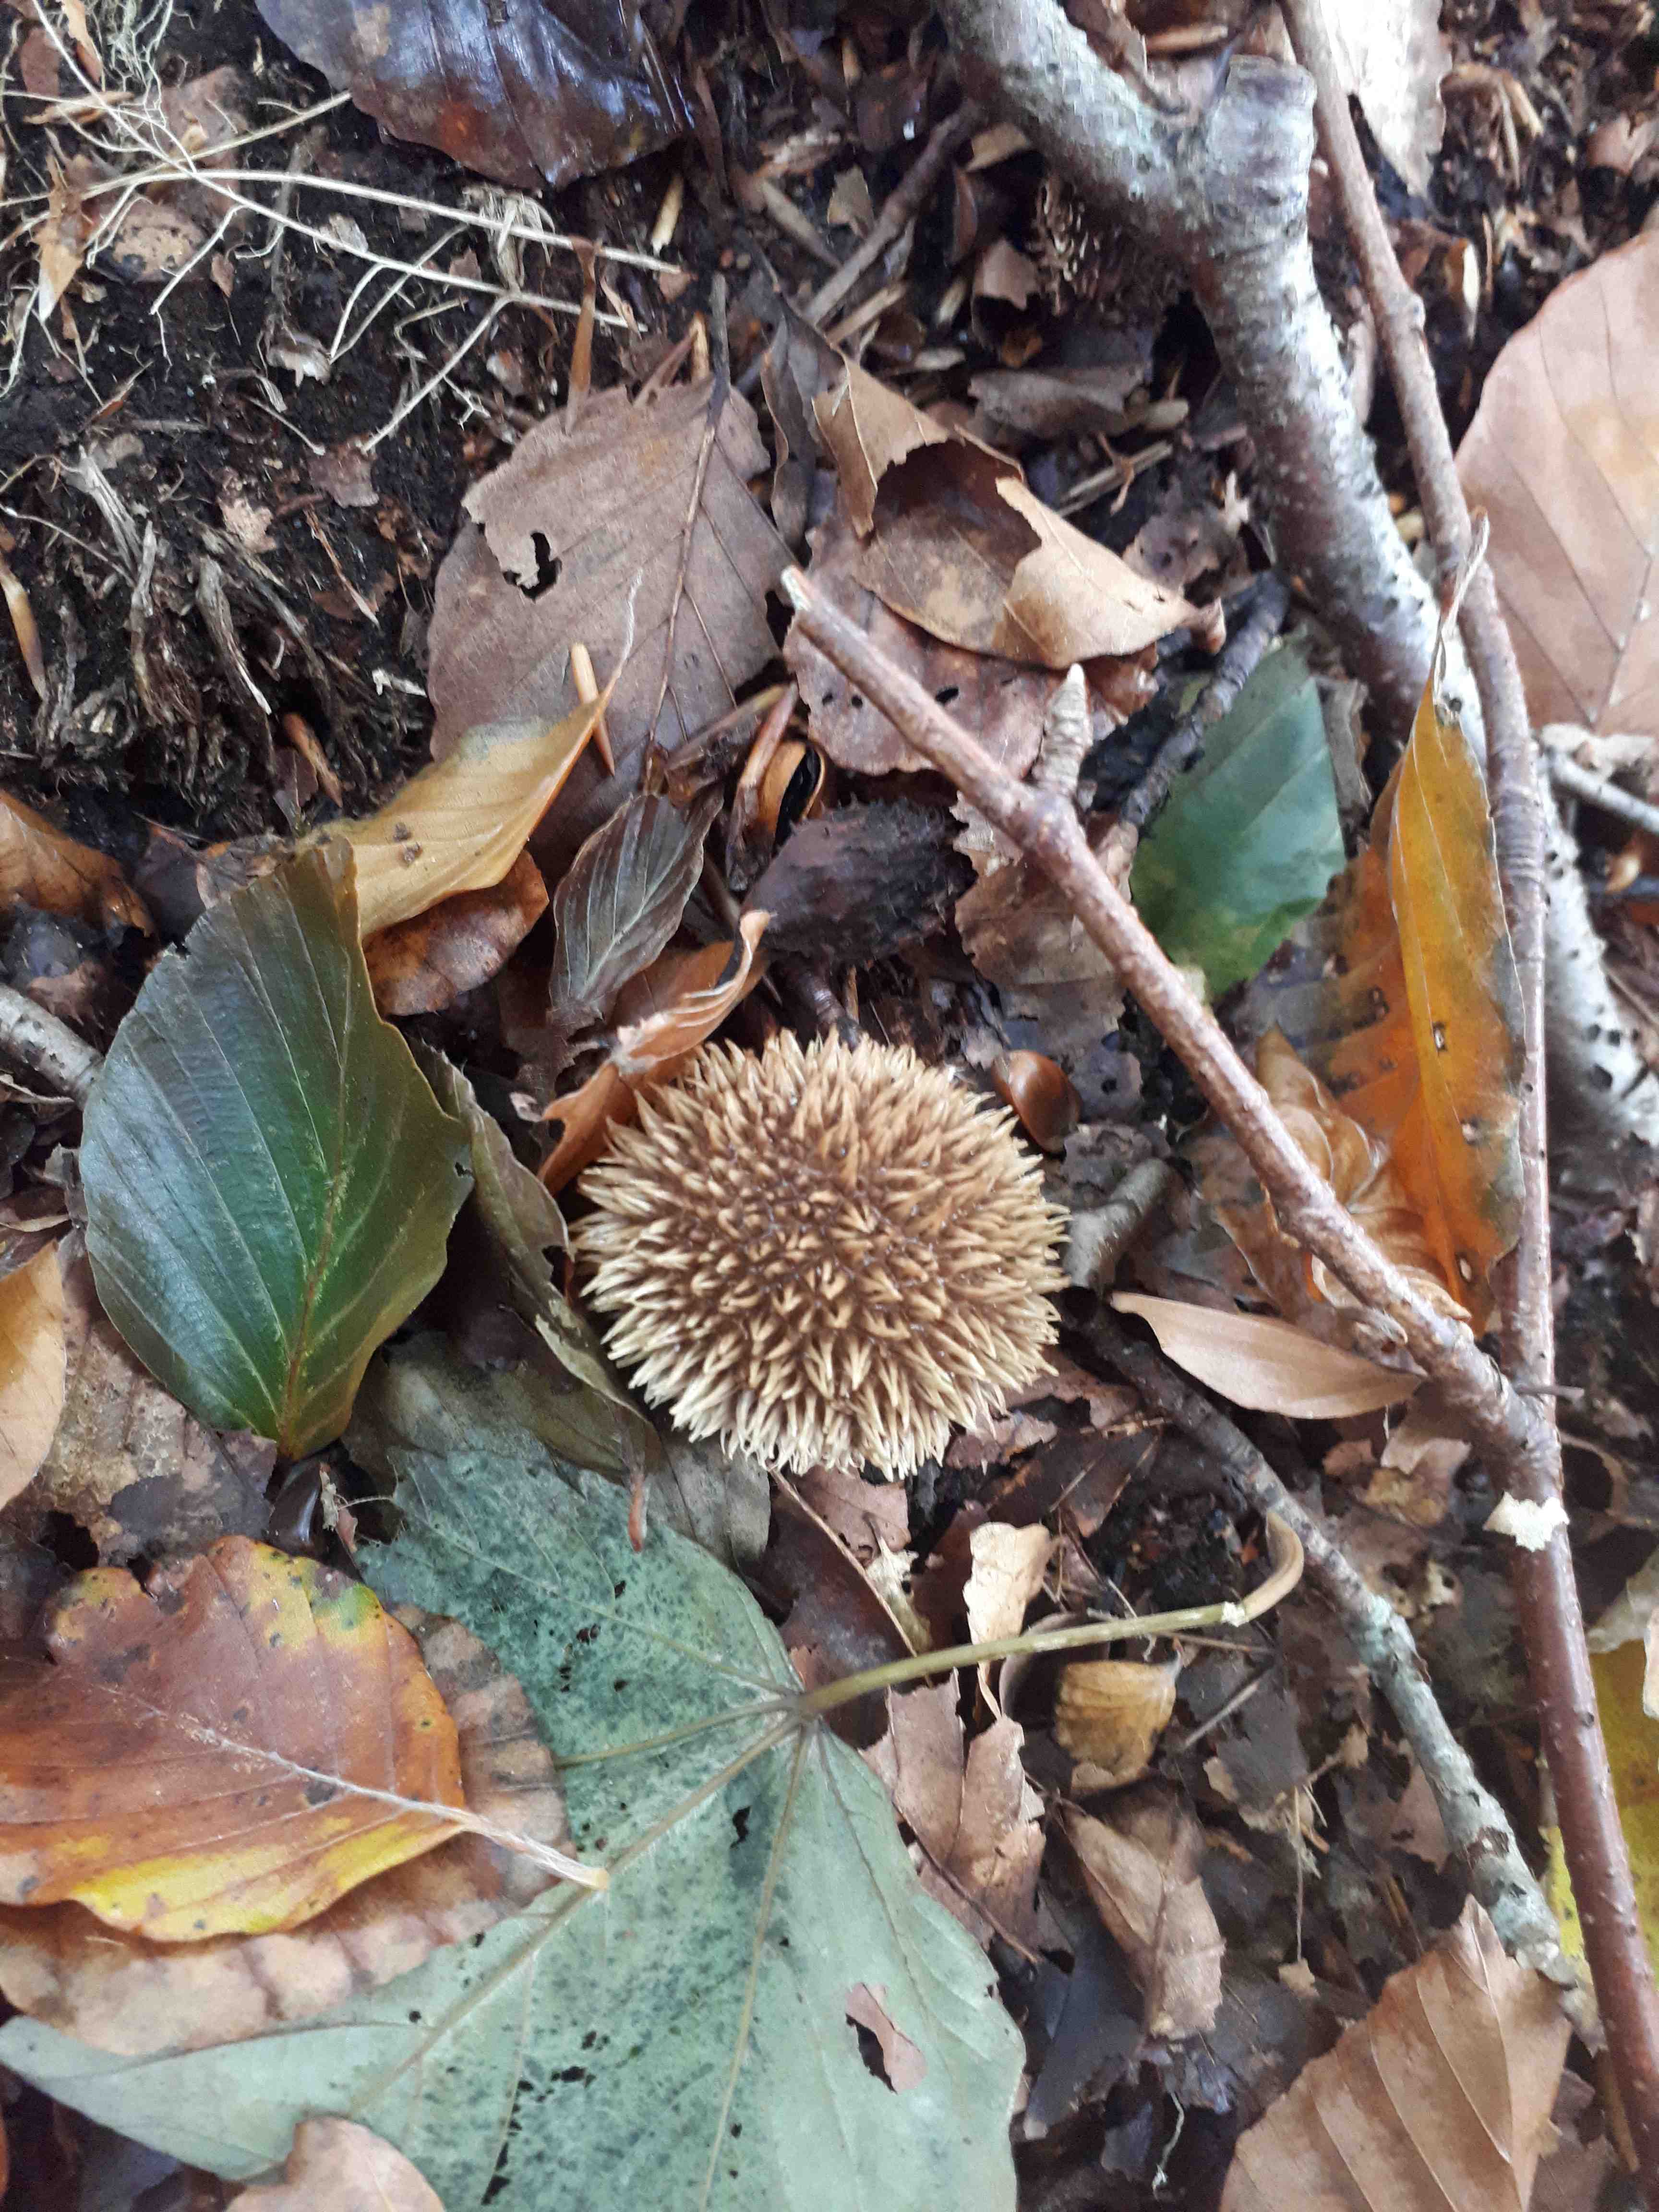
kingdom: Fungi
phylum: Basidiomycota
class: Agaricomycetes
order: Agaricales
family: Lycoperdaceae
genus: Lycoperdon
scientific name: Lycoperdon echinatum
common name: pindsvine-støvbold
